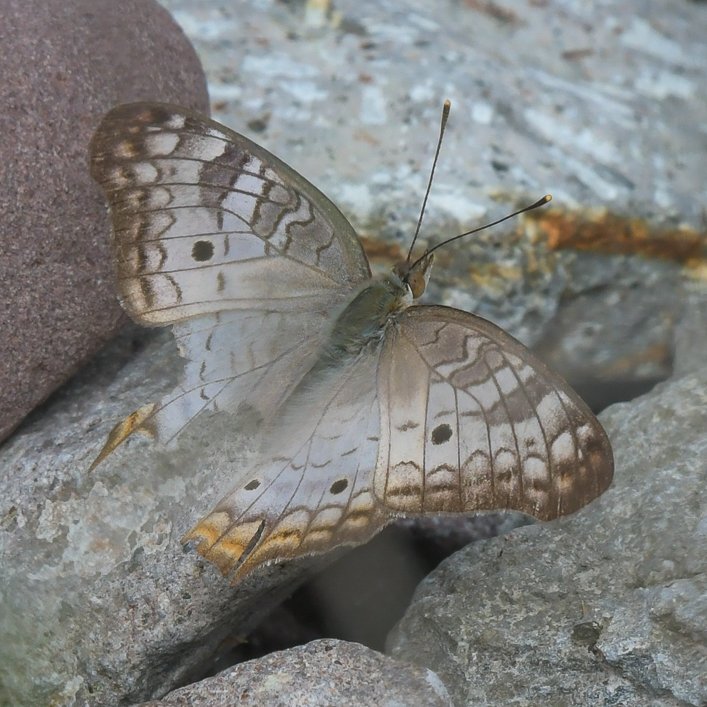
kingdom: Animalia
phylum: Arthropoda
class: Insecta
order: Lepidoptera
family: Nymphalidae
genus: Anartia
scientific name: Anartia jatrophae
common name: White Peacock
